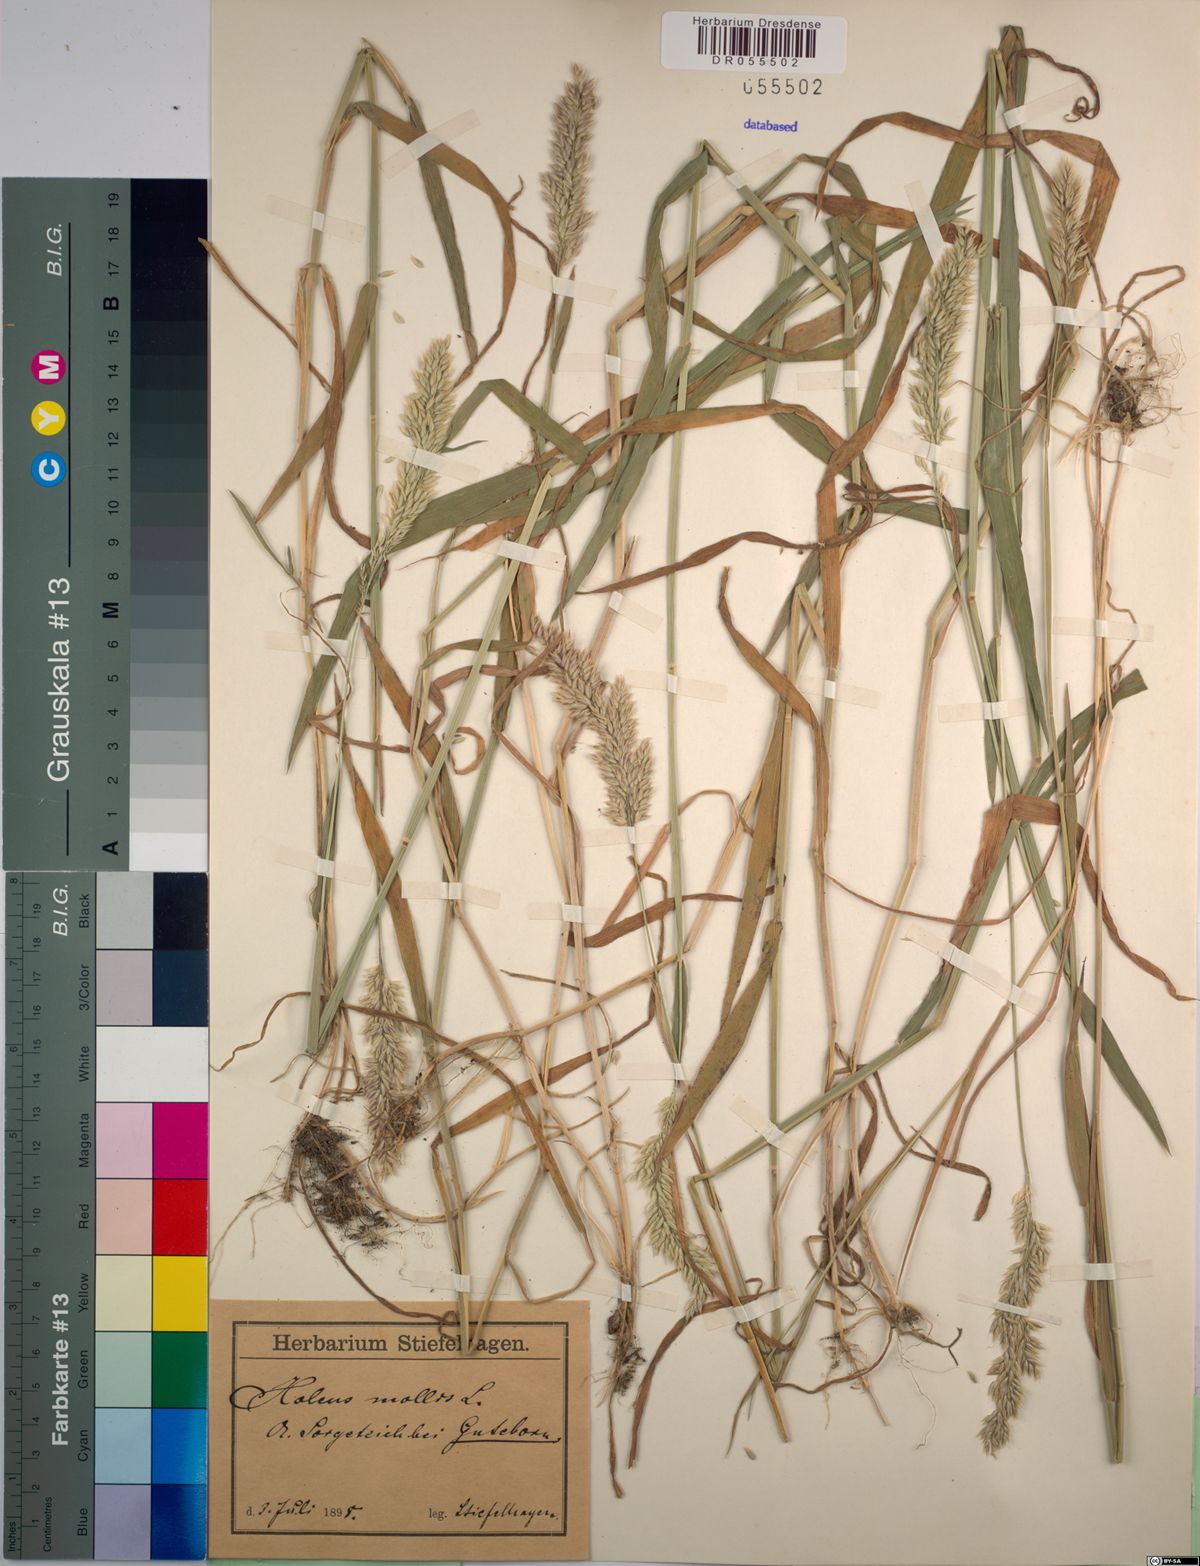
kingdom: Plantae
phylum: Tracheophyta
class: Liliopsida
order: Poales
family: Poaceae
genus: Holcus
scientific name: Holcus mollis
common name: Creeping velvetgrass
